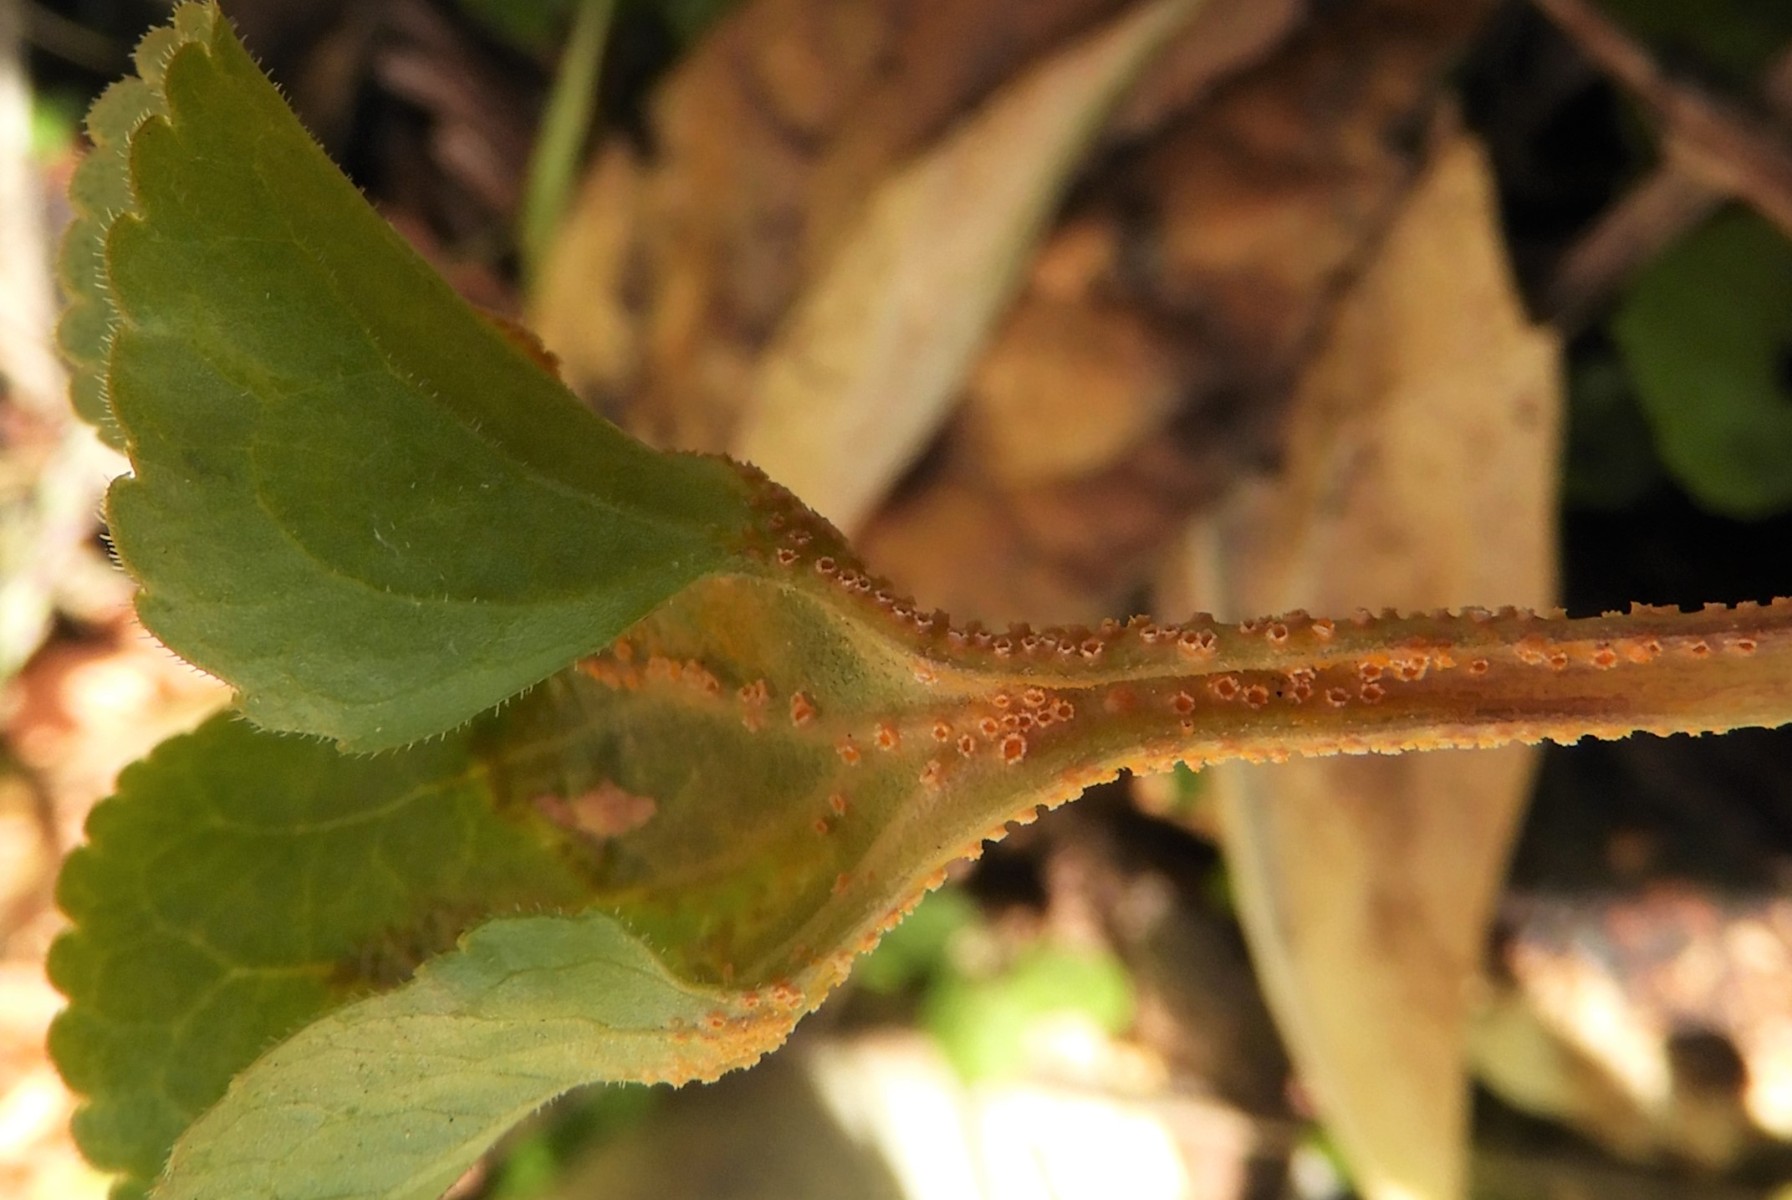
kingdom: Fungi
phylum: Basidiomycota
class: Pucciniomycetes
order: Pucciniales
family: Pucciniaceae
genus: Puccinia
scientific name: Puccinia violae
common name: viol-tvecellerust
